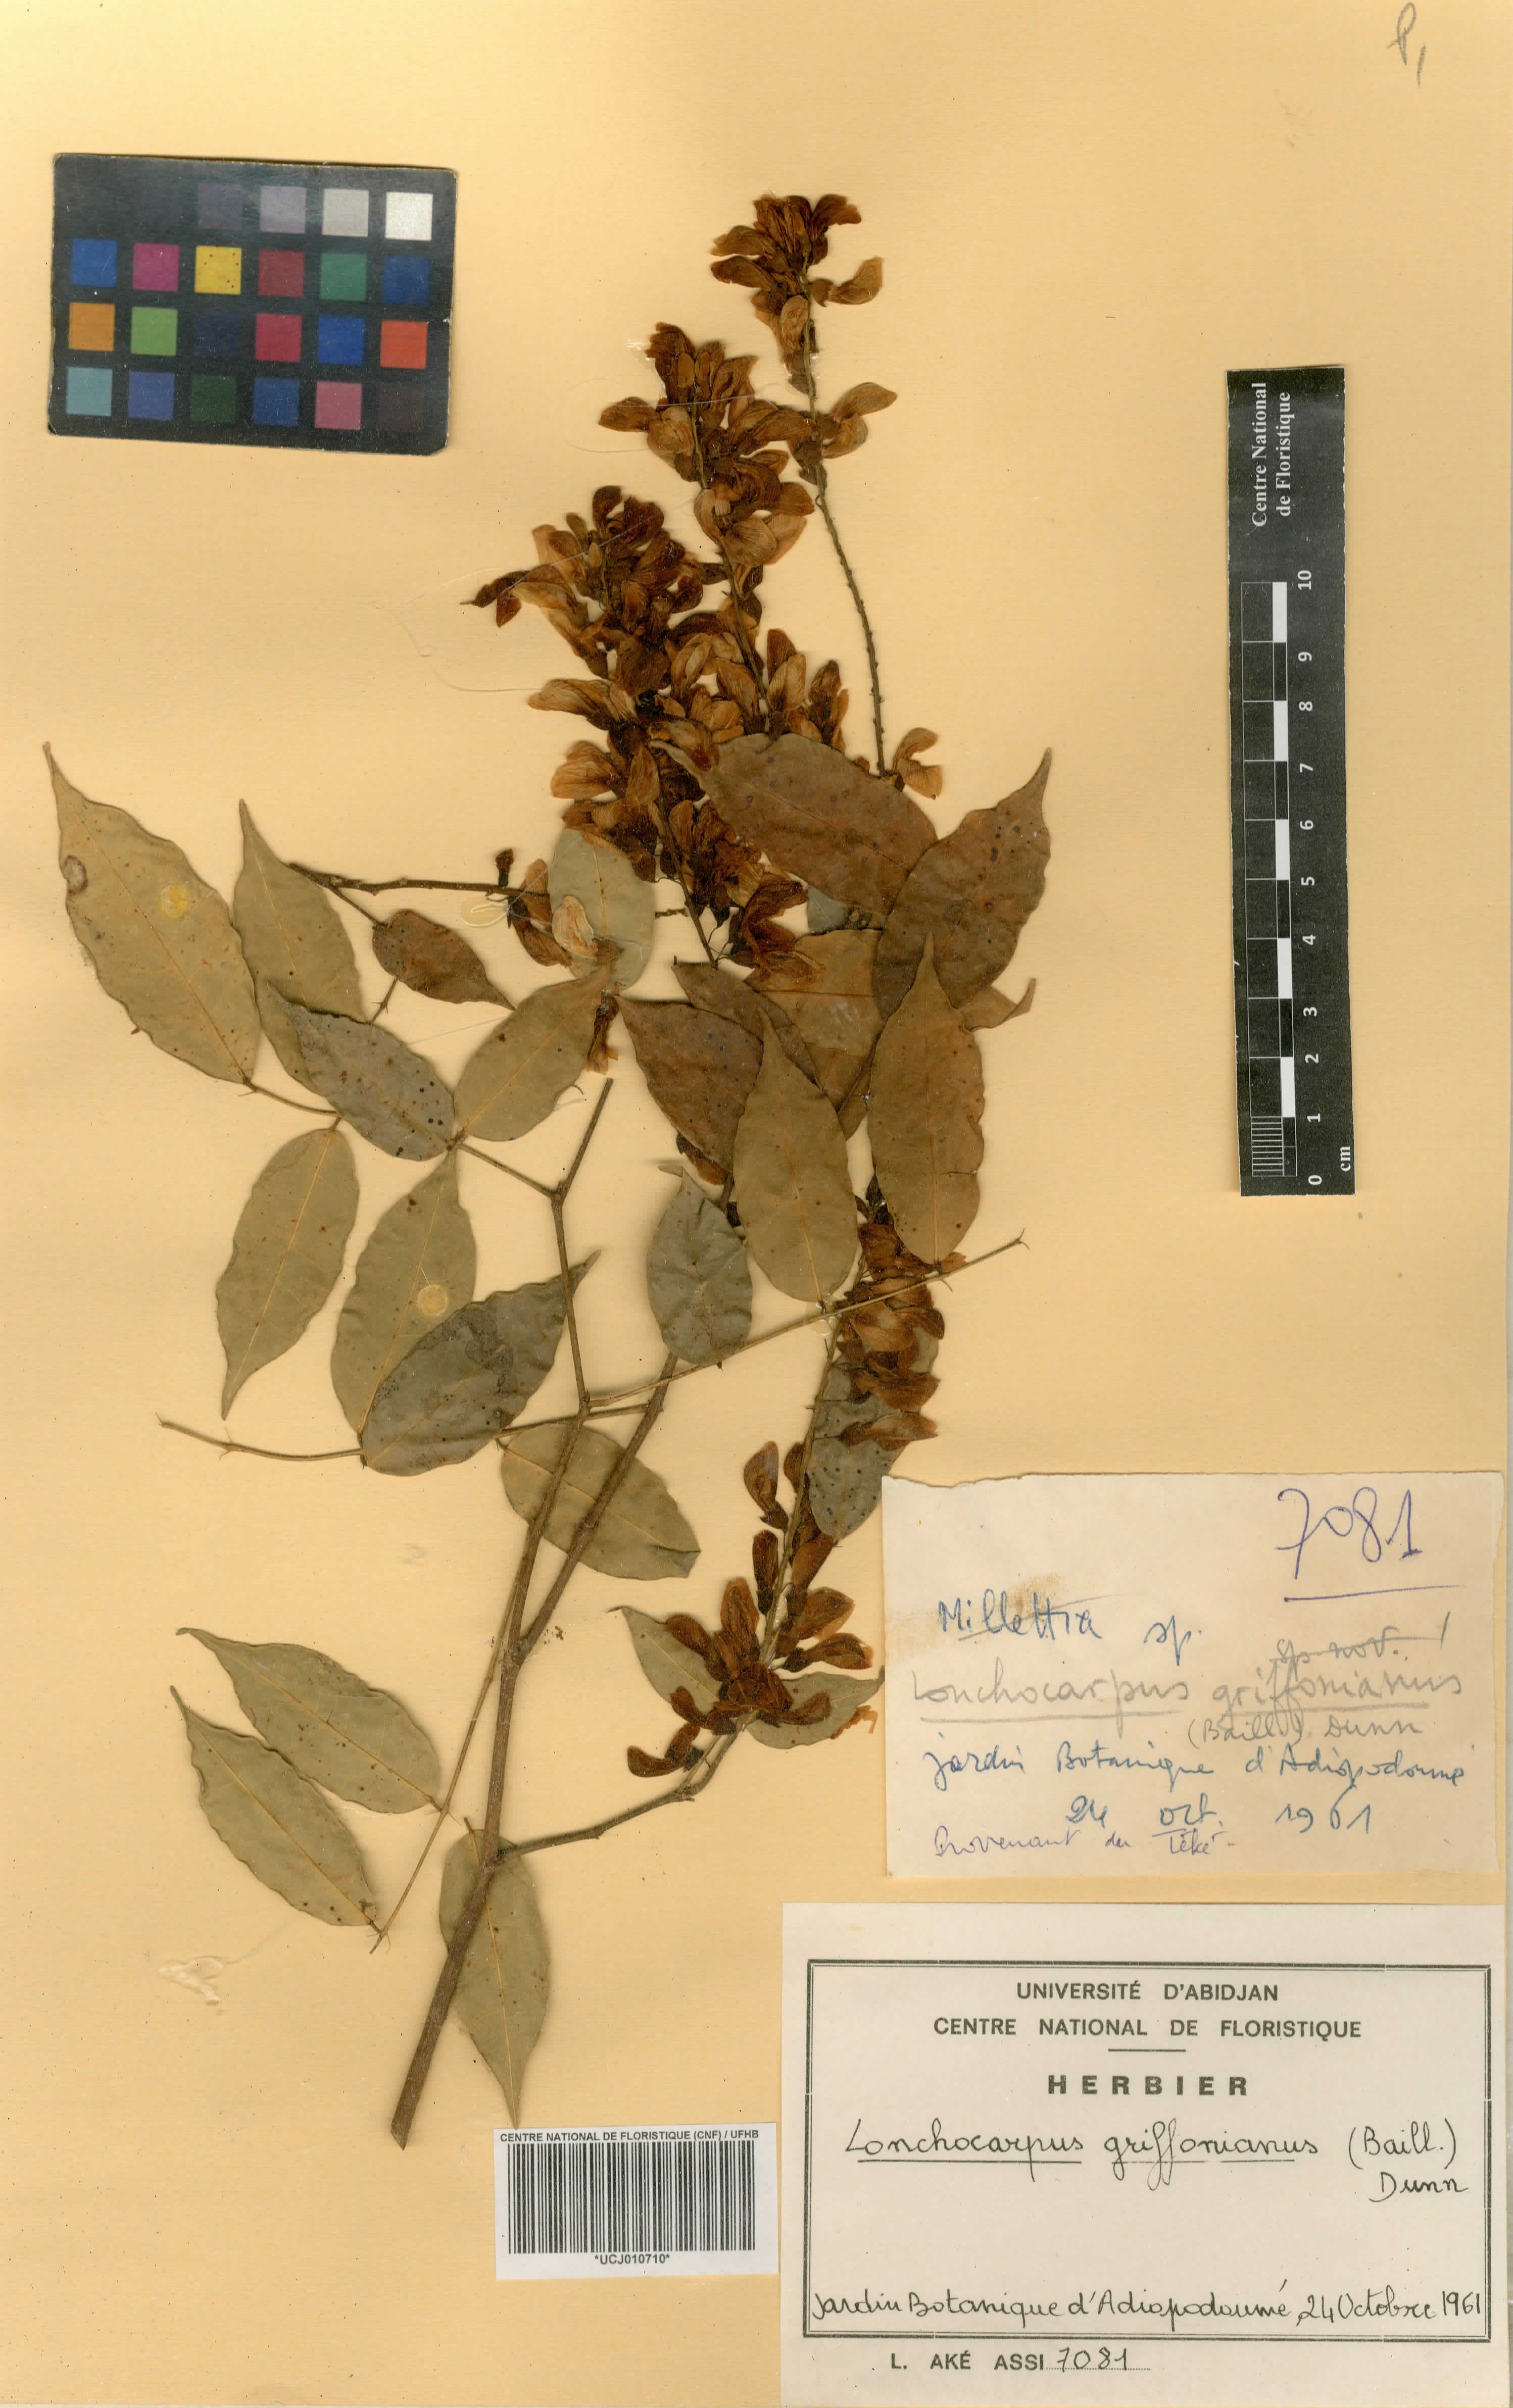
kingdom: Plantae
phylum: Tracheophyta
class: Magnoliopsida
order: Fabales
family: Fabaceae
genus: Millettia
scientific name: Millettia griffoniana
